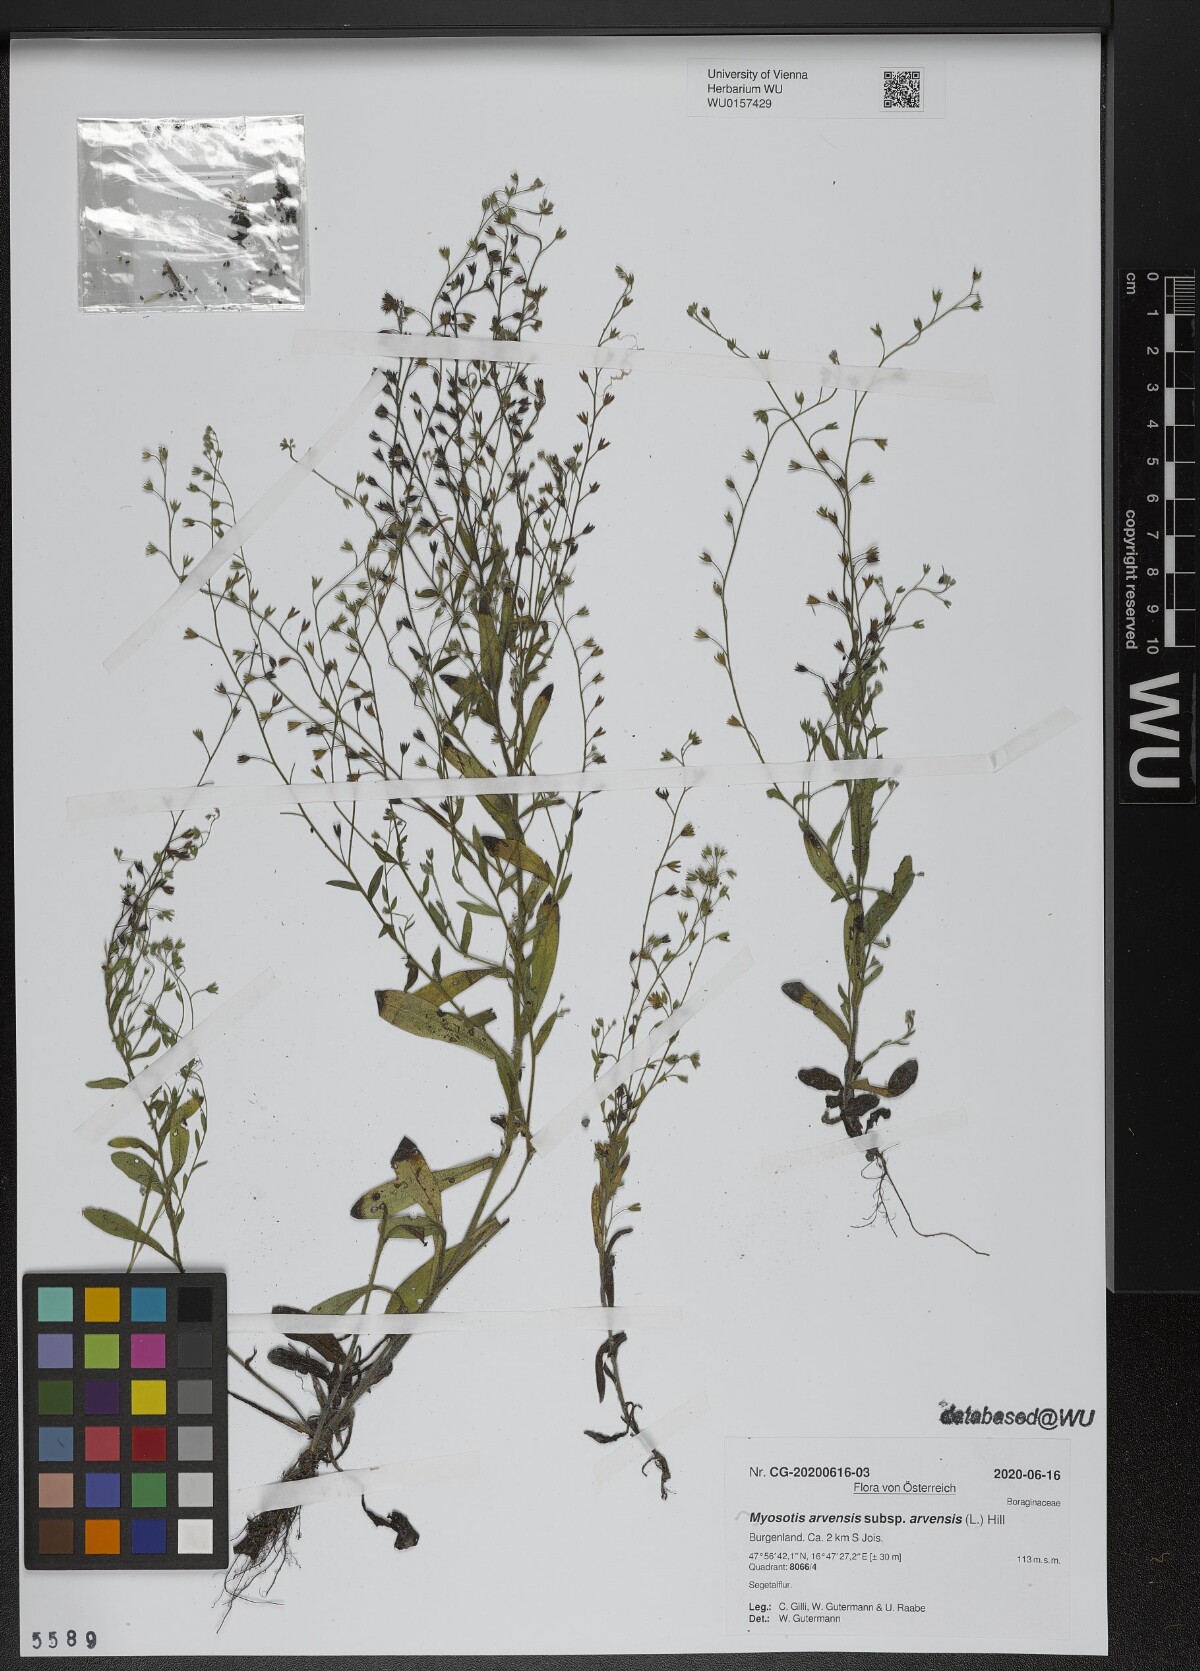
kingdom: Plantae
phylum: Tracheophyta
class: Magnoliopsida
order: Boraginales
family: Boraginaceae
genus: Myosotis
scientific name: Myosotis arvensis
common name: Field forget-me-not
